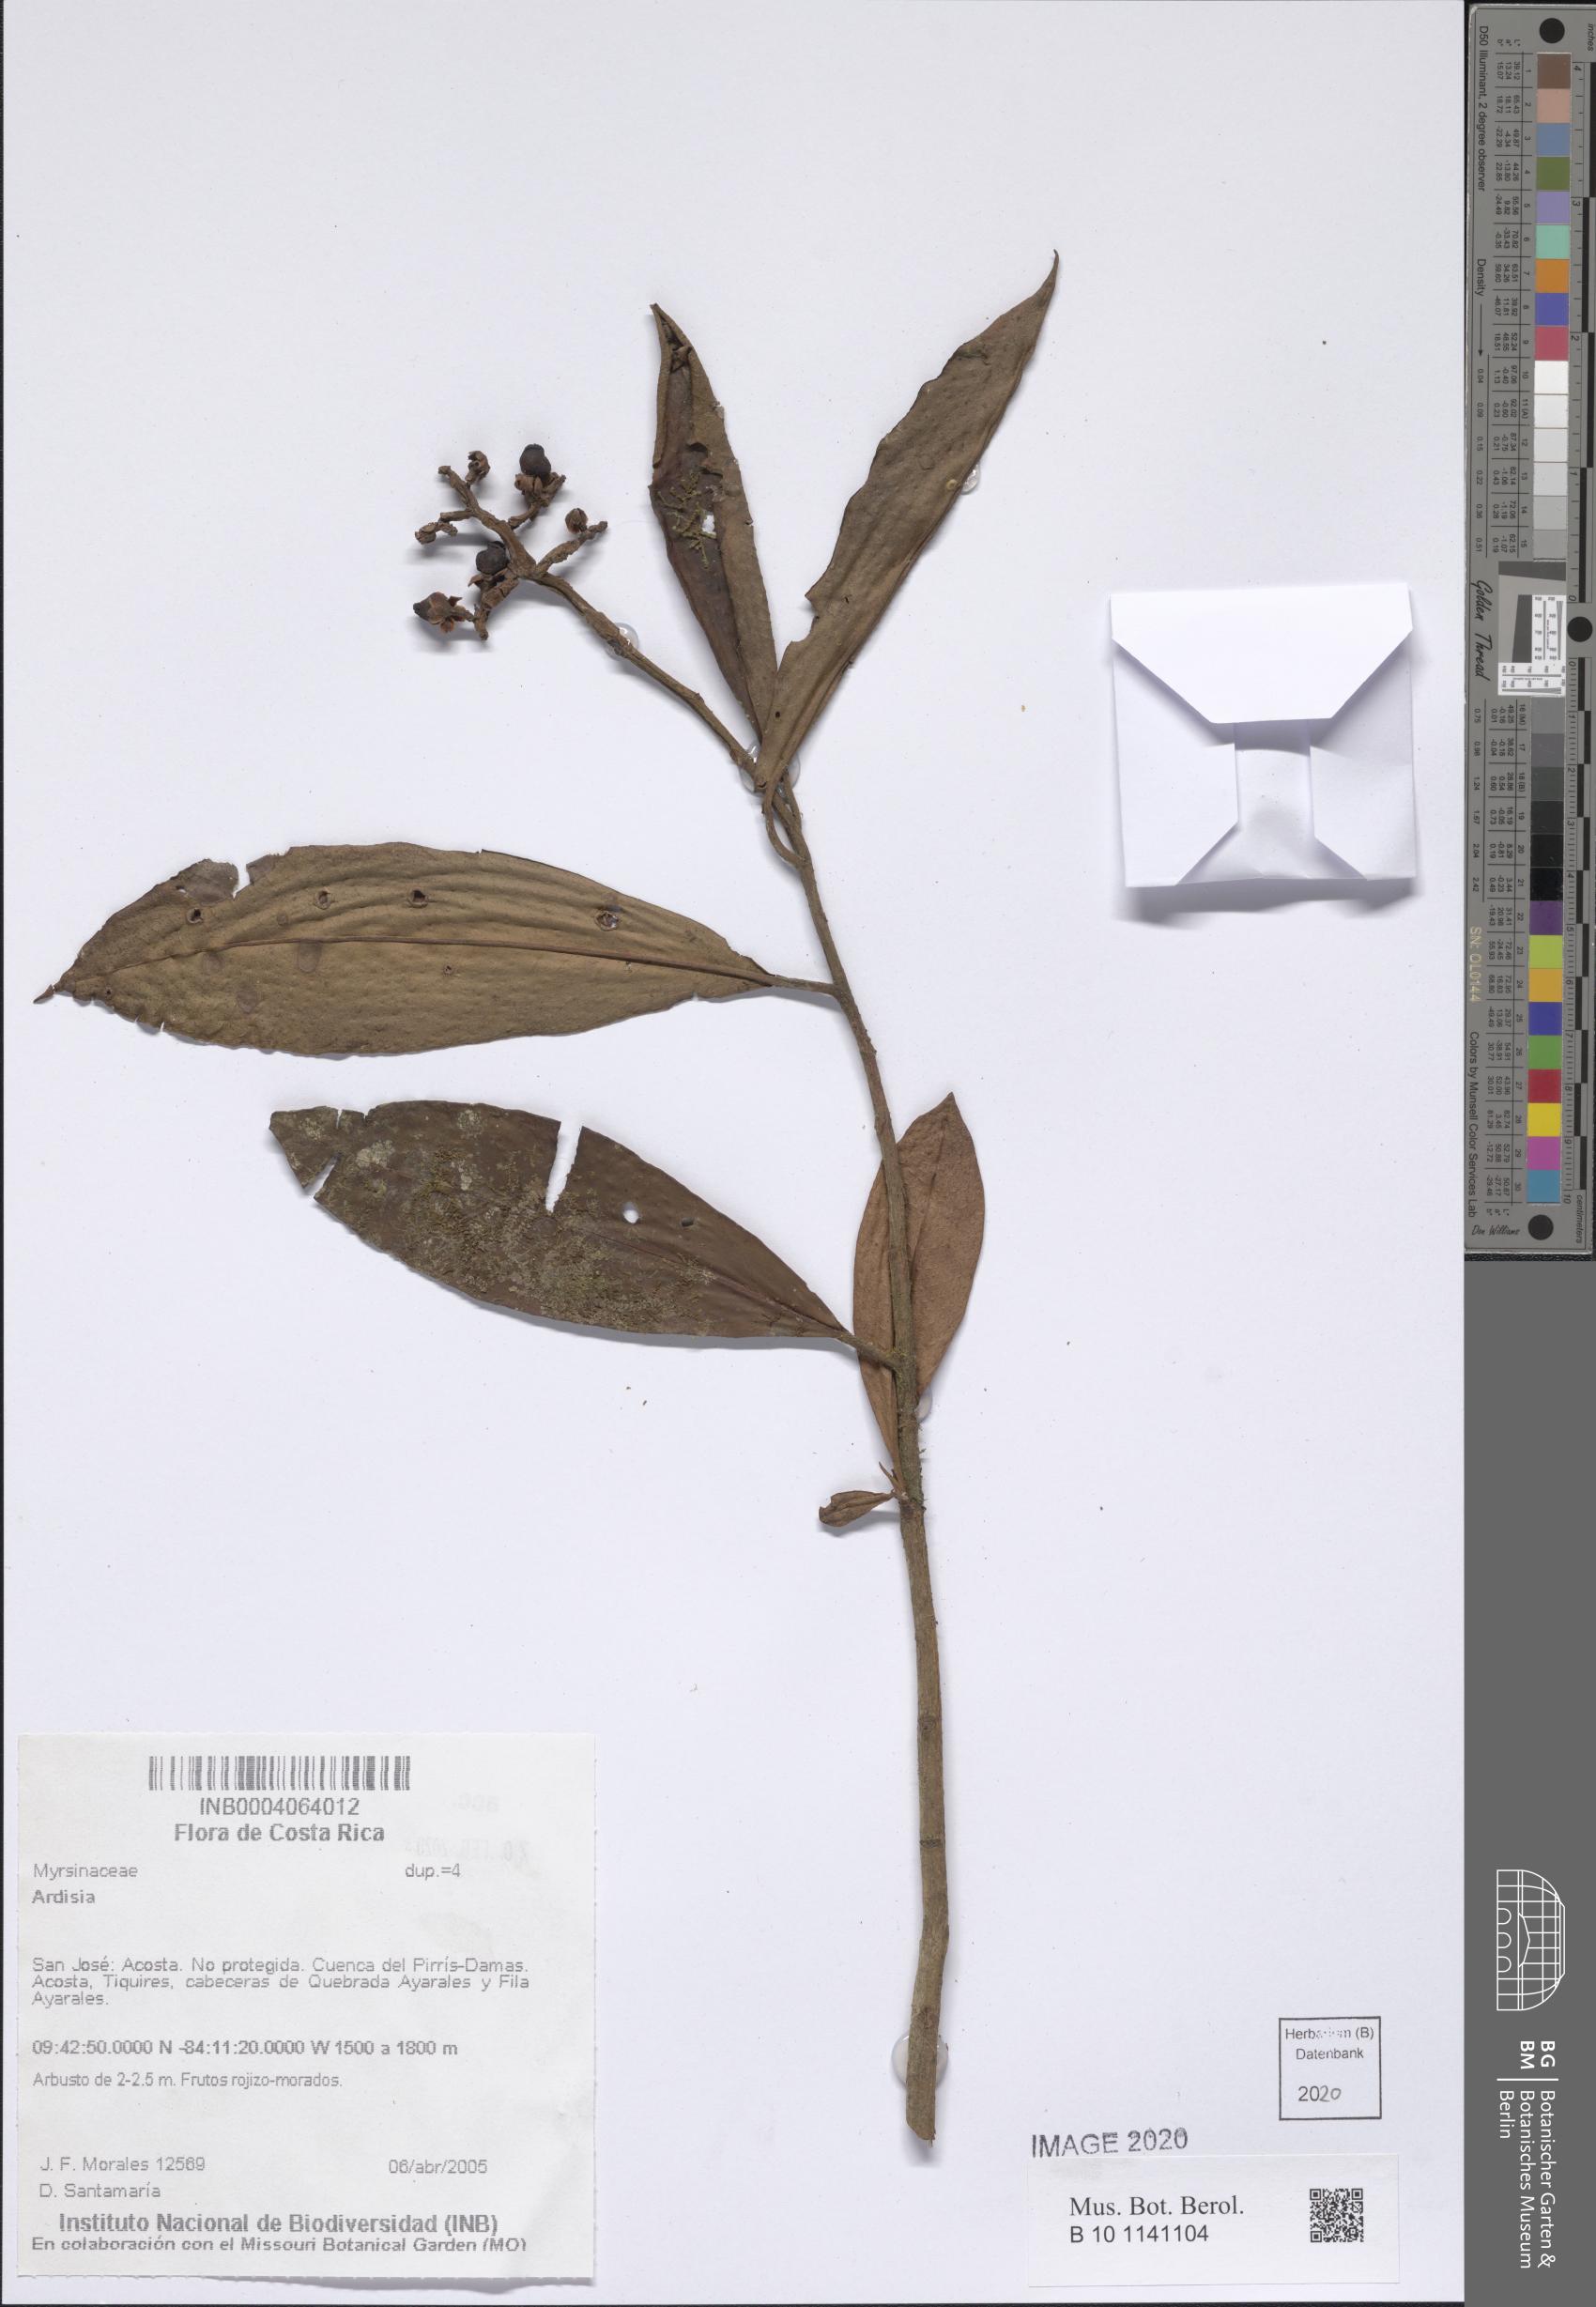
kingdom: Plantae
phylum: Tracheophyta
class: Magnoliopsida
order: Ericales
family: Primulaceae
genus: Ardisia
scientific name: Ardisia
